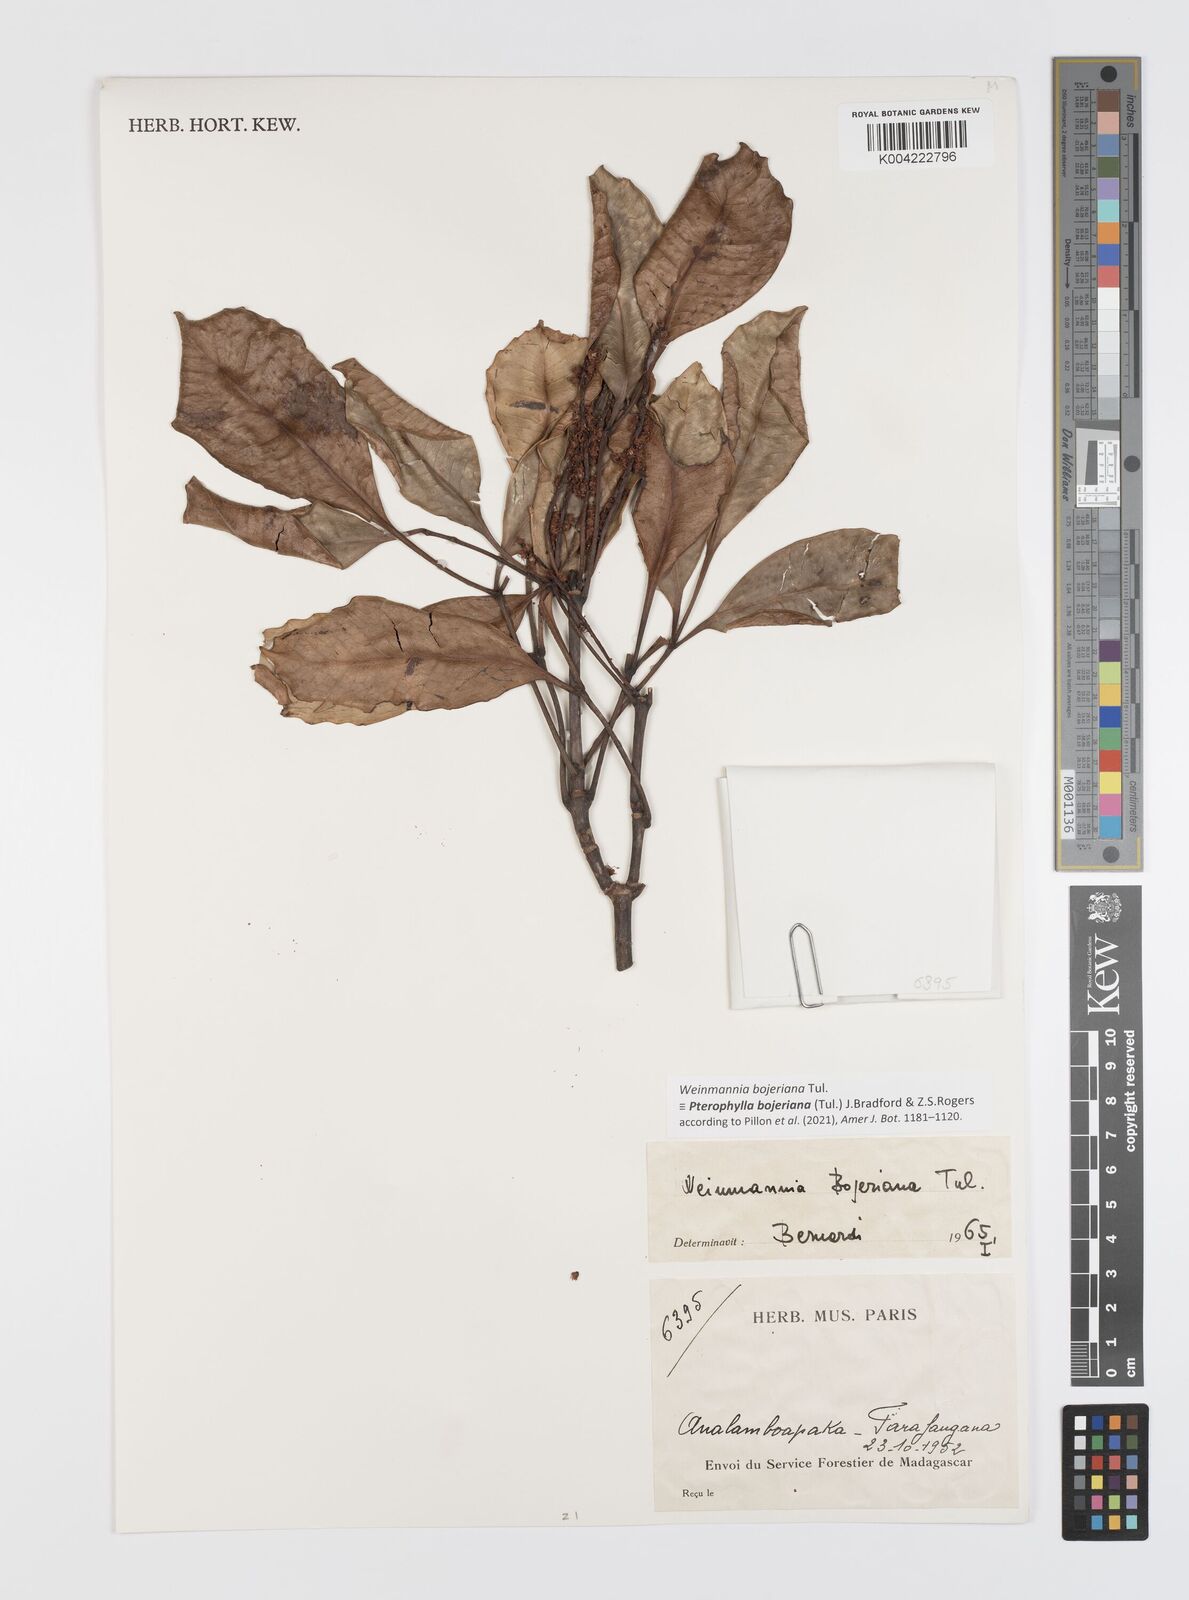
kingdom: Plantae
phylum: Tracheophyta
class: Magnoliopsida
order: Oxalidales
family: Cunoniaceae
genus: Pterophylla
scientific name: Pterophylla
